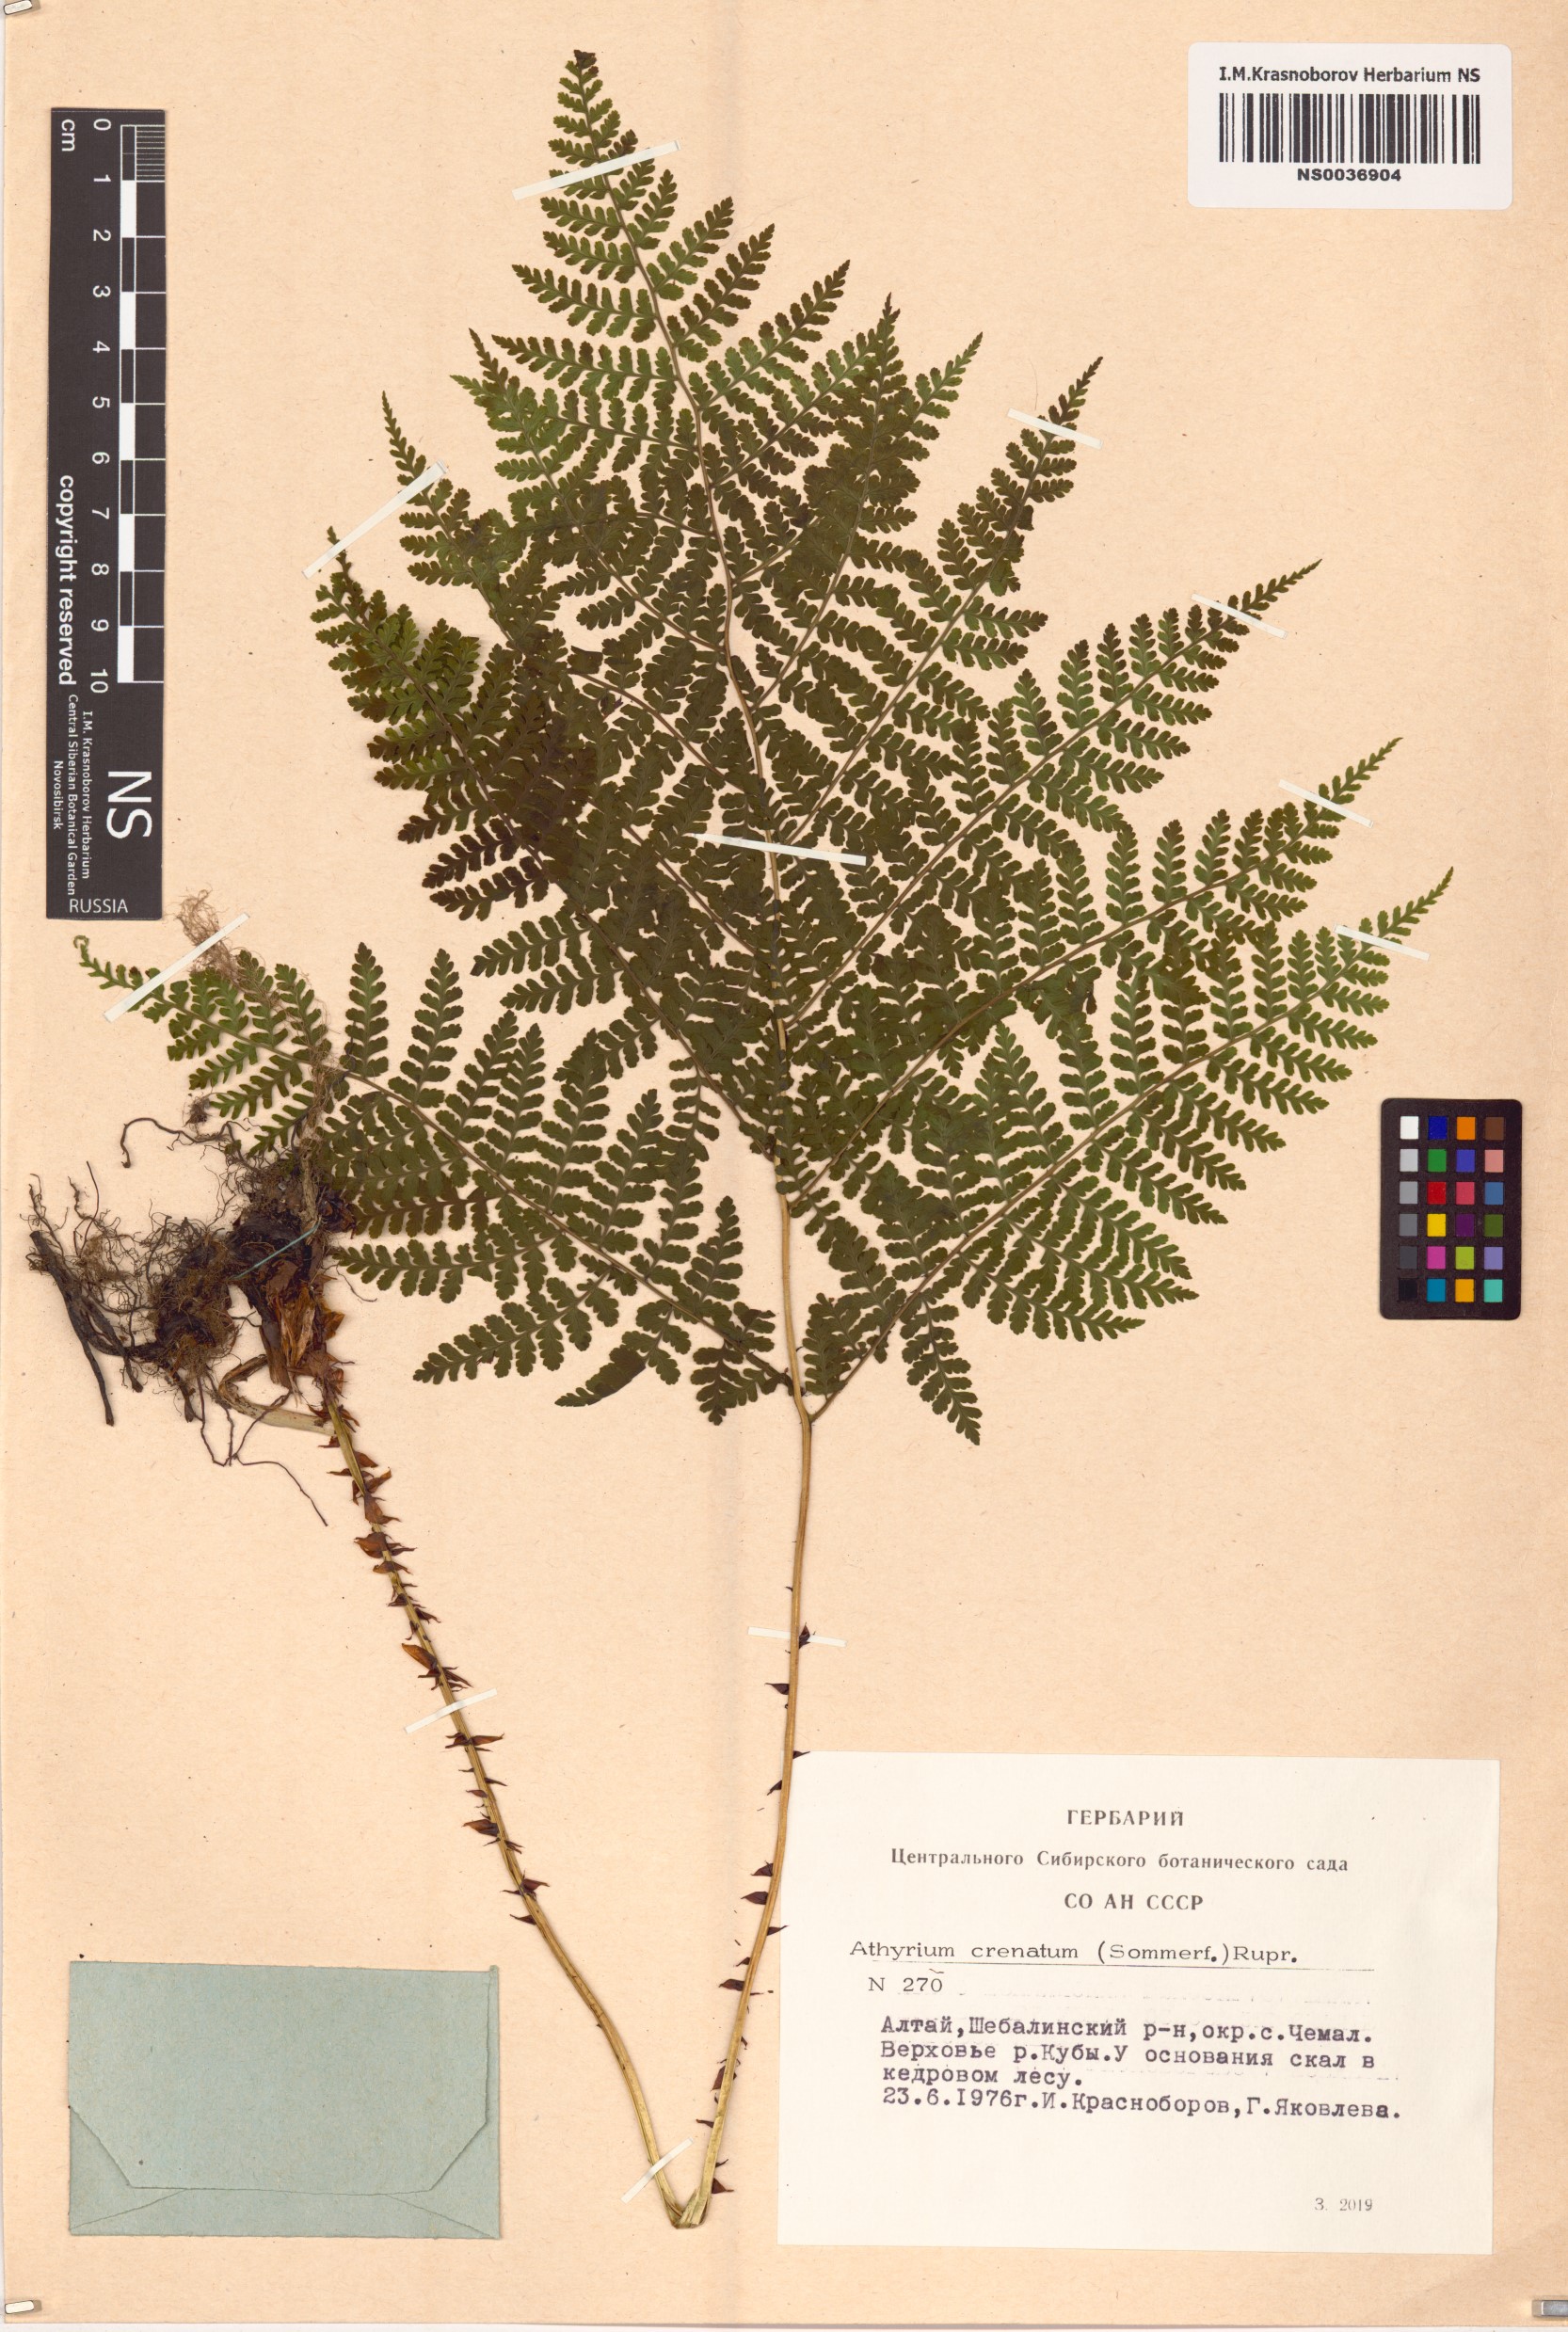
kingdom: Plantae
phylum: Tracheophyta
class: Polypodiopsida
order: Polypodiales
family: Athyriaceae
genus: Diplazium
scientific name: Diplazium sibiricum
